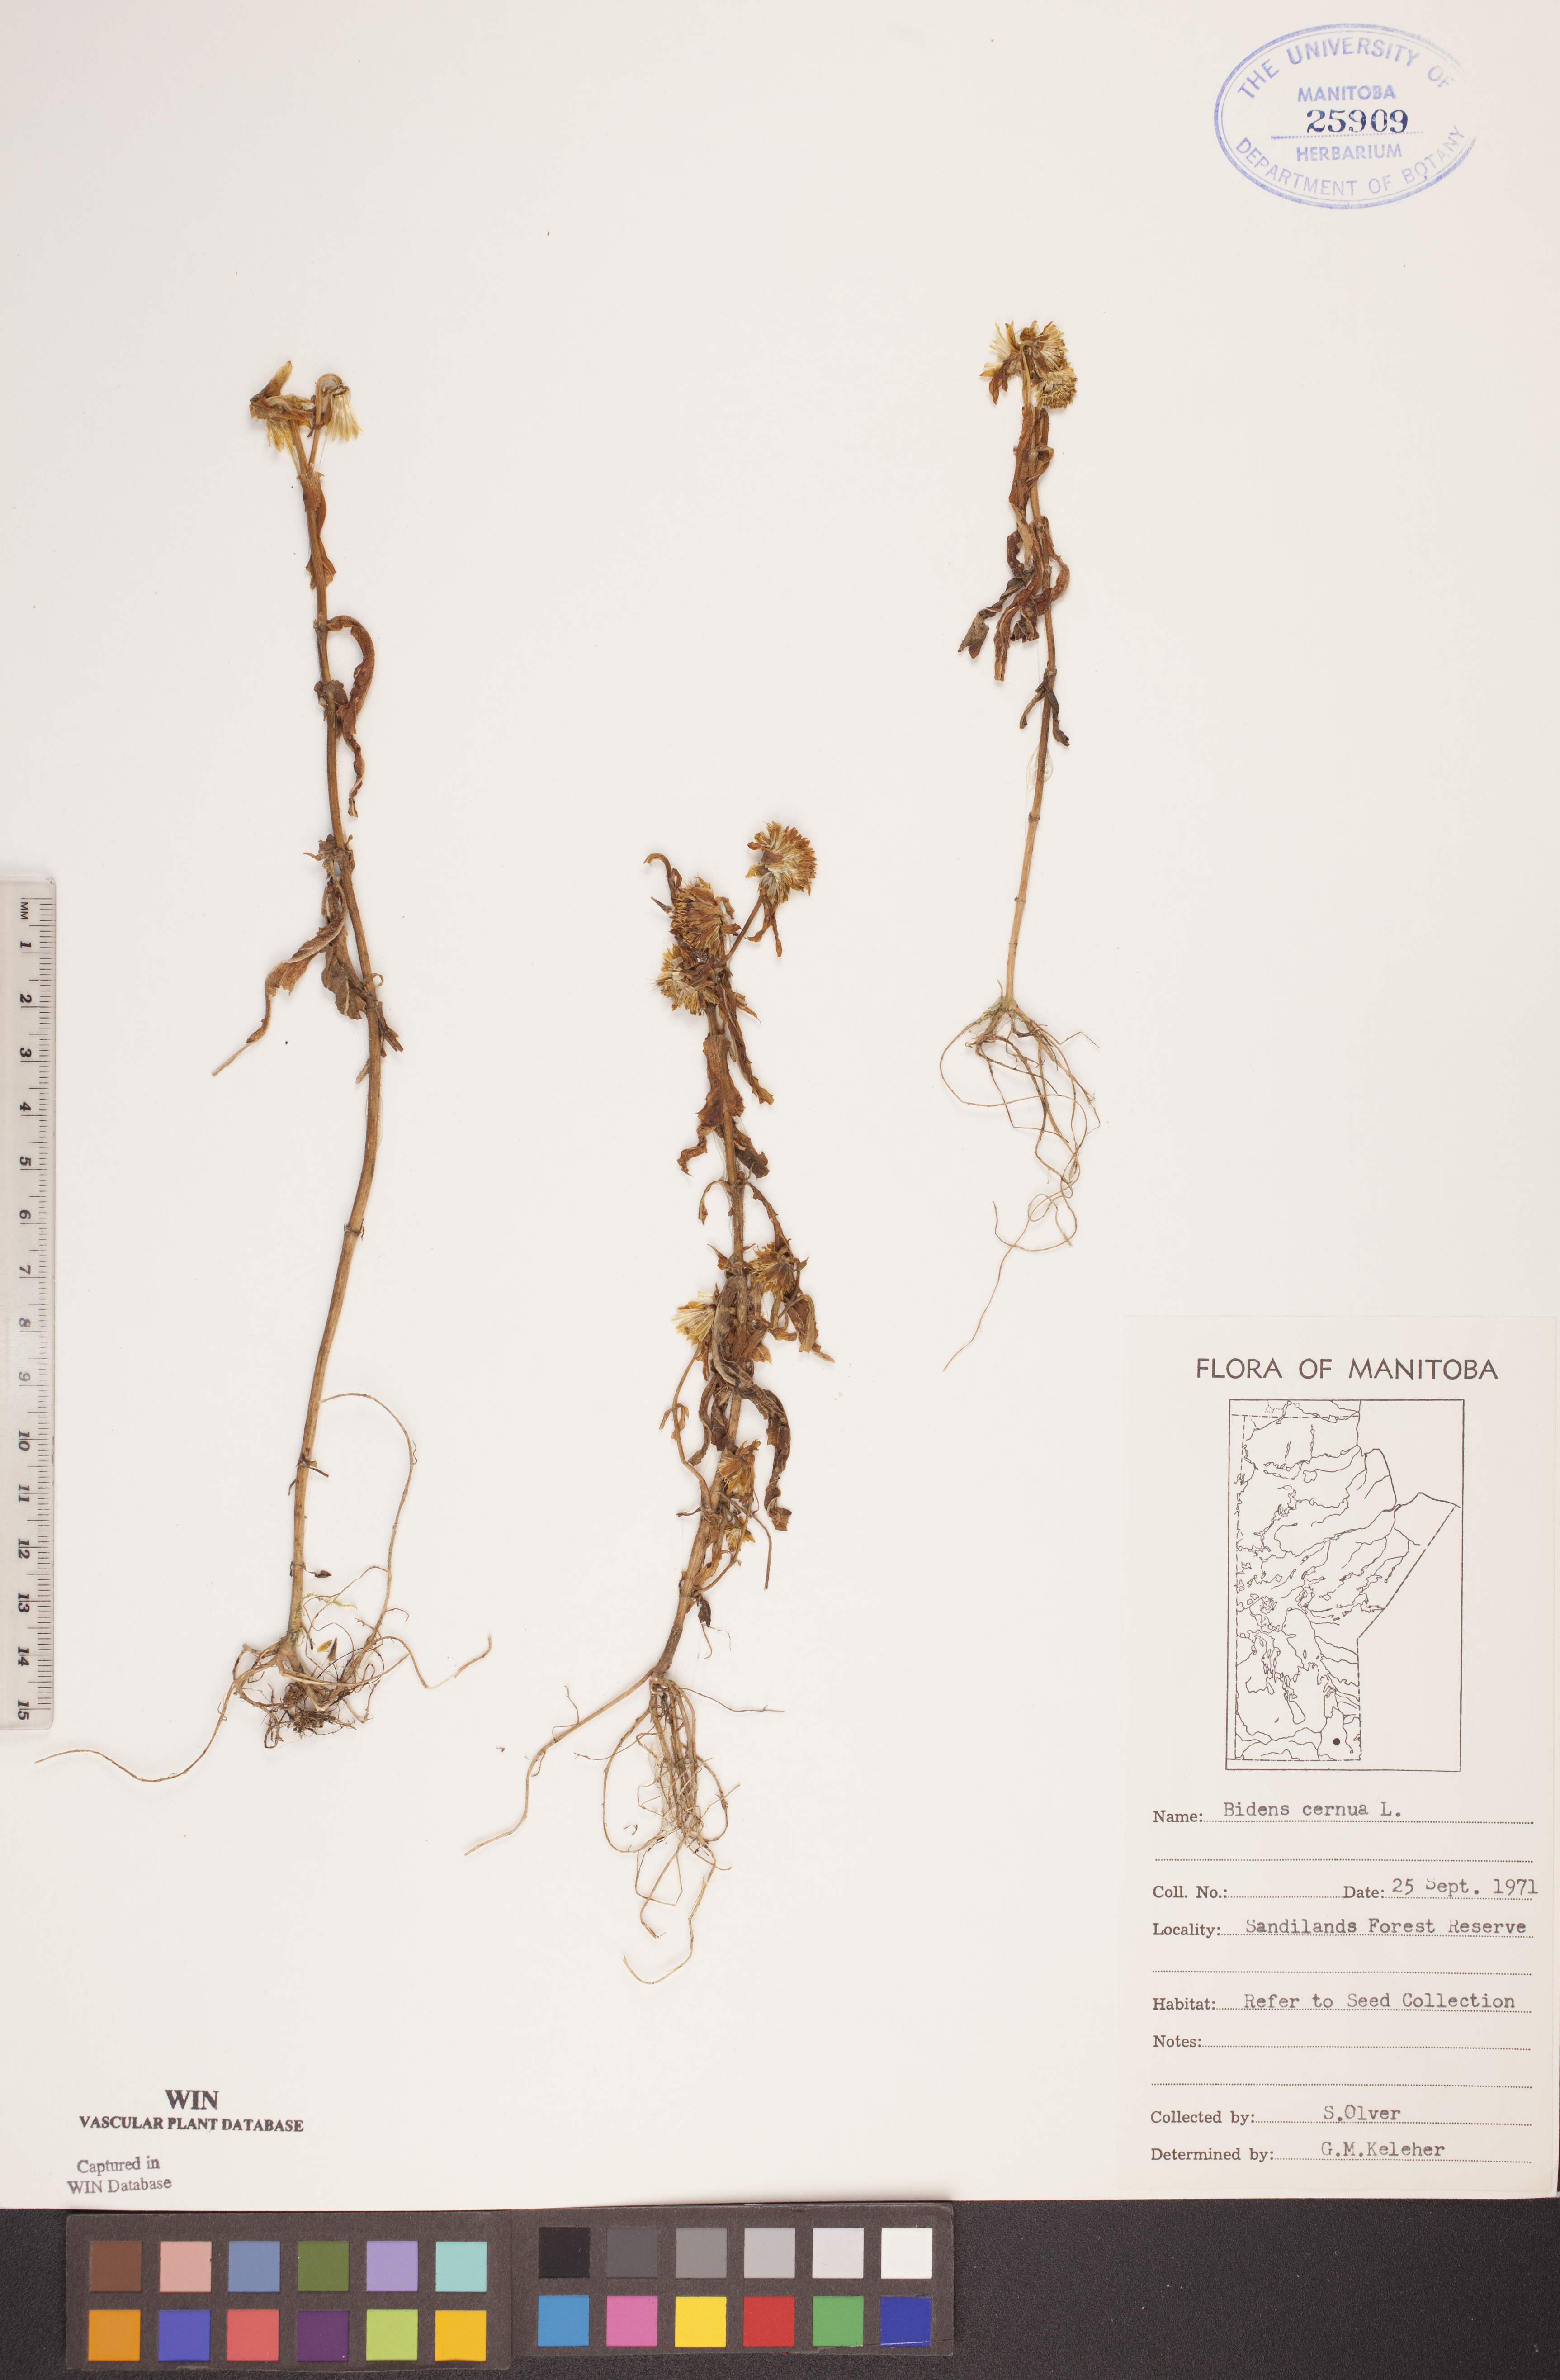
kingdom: Plantae
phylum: Tracheophyta
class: Magnoliopsida
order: Asterales
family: Asteraceae
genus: Bidens
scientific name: Bidens cernua
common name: Nodding bur-marigold
